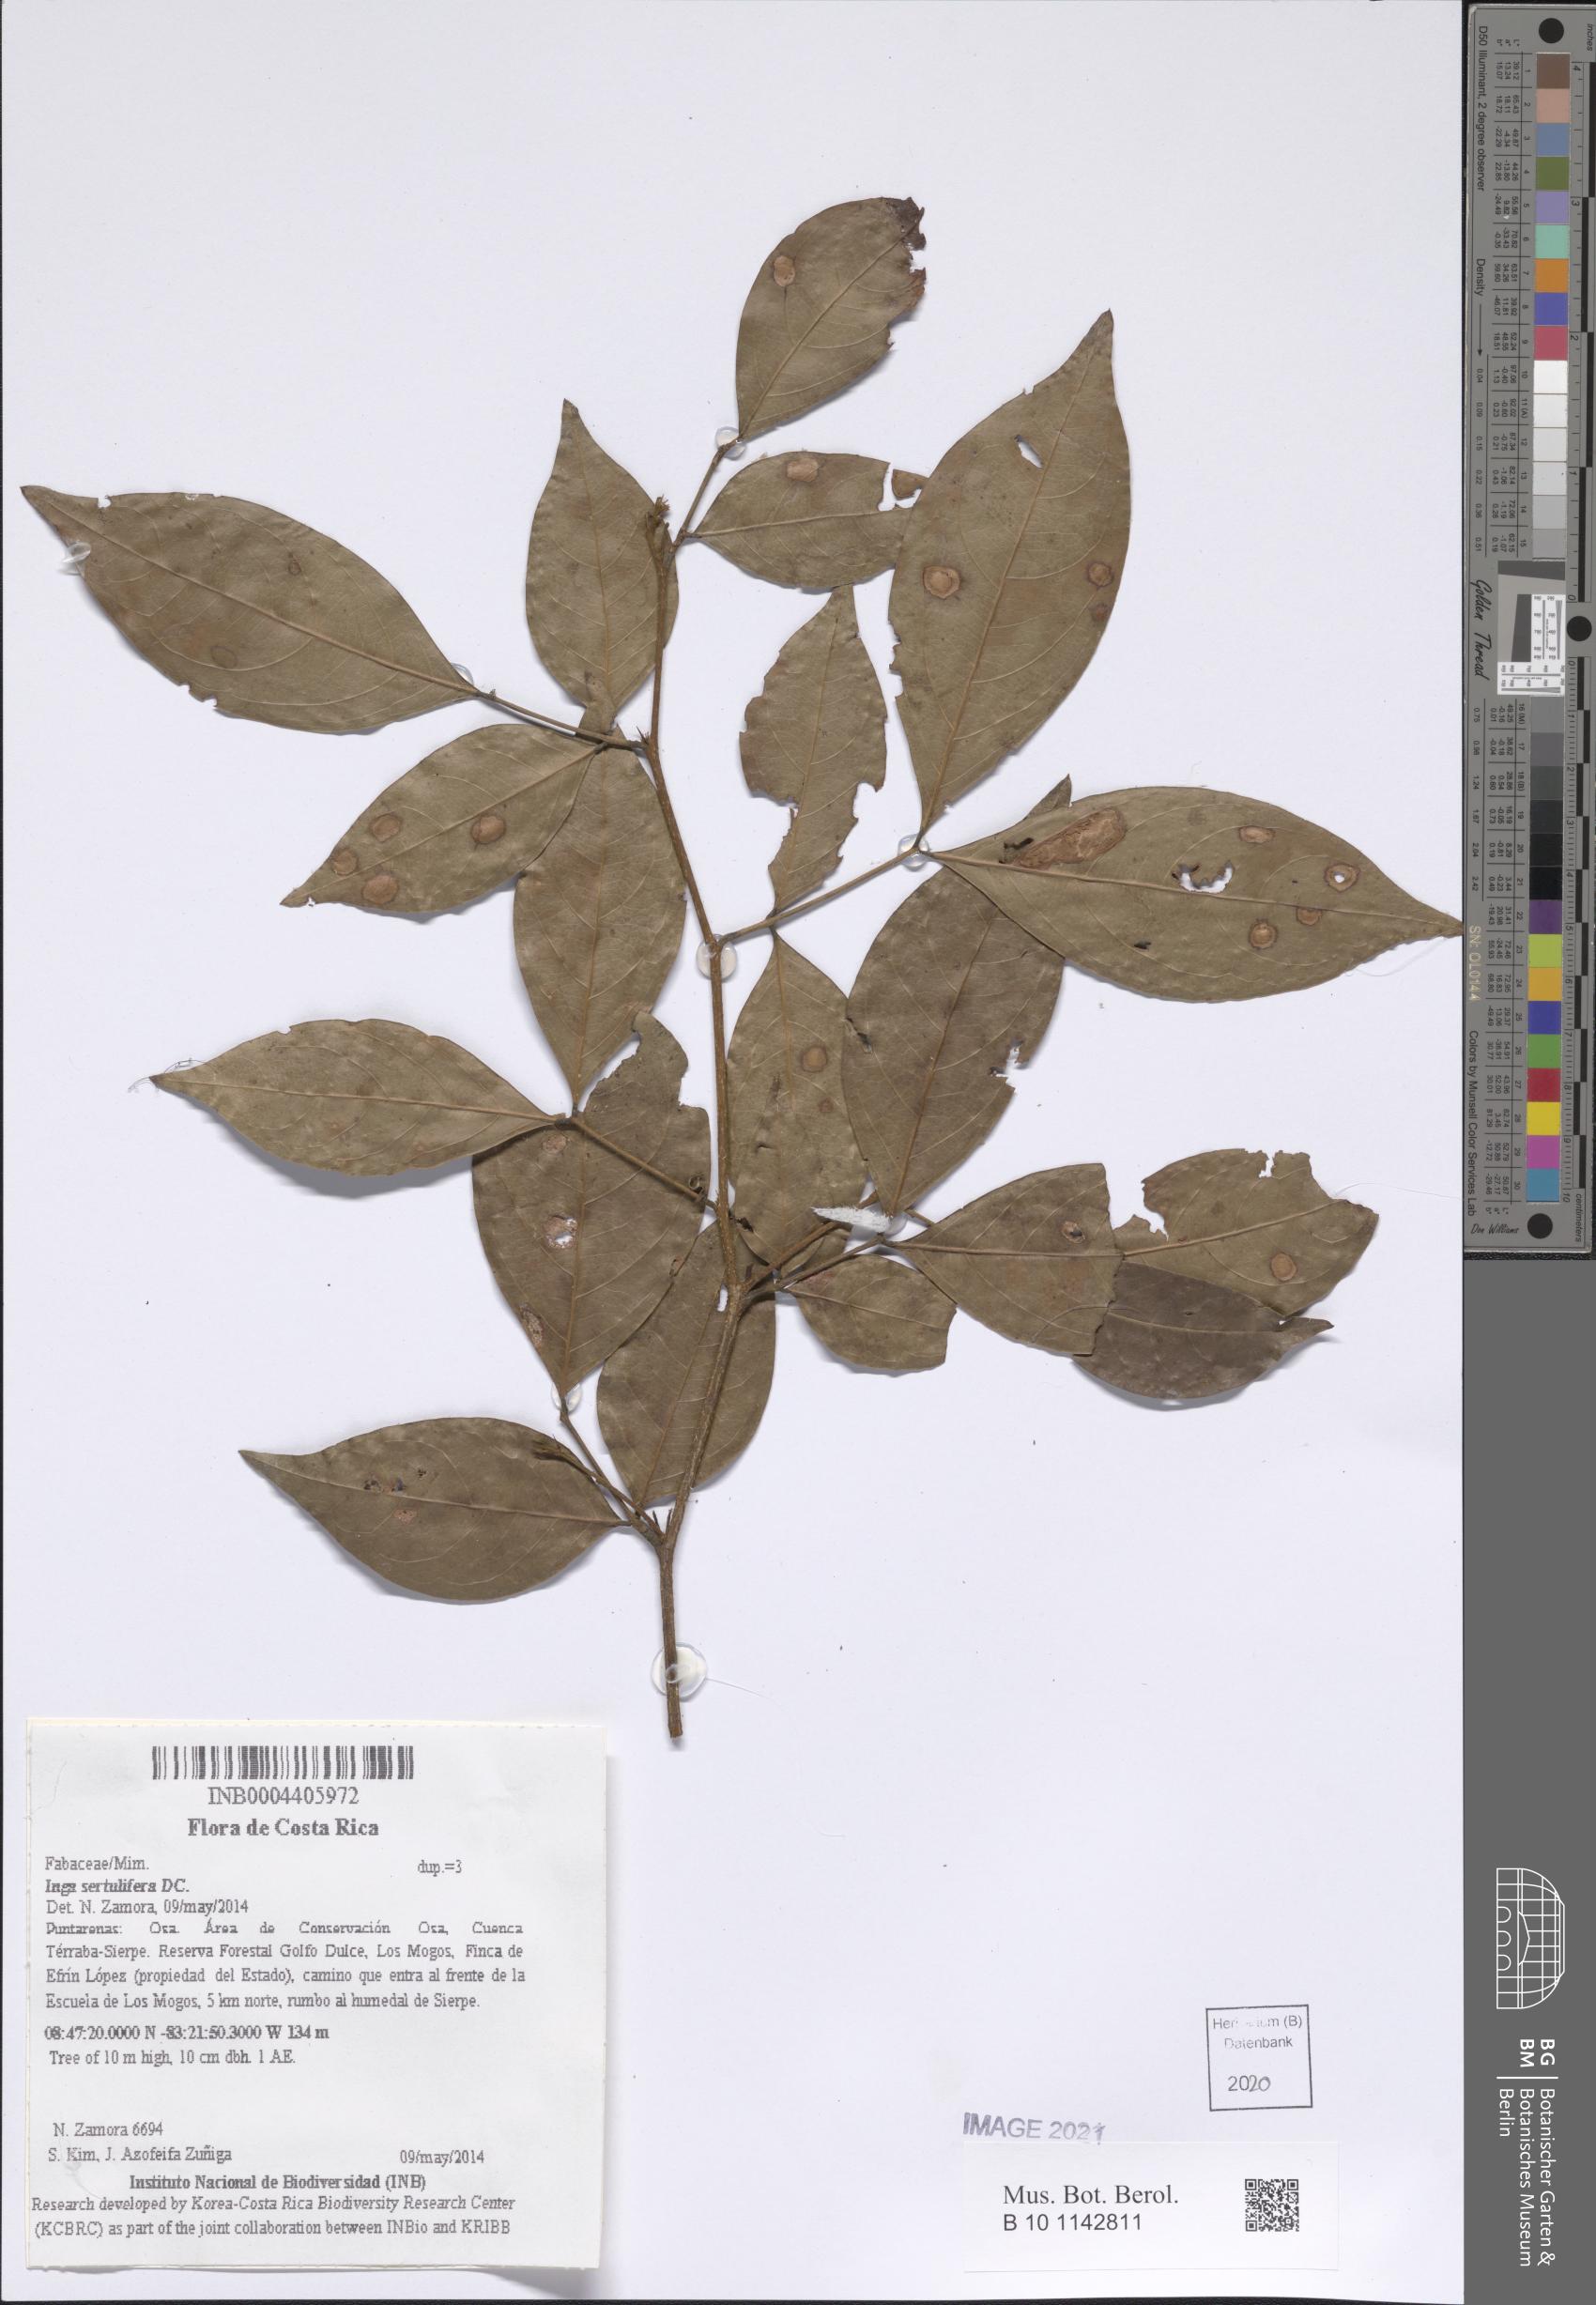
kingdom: Plantae
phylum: Tracheophyta
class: Magnoliopsida
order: Fabales
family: Fabaceae
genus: Inga
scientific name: Inga sertulifera
